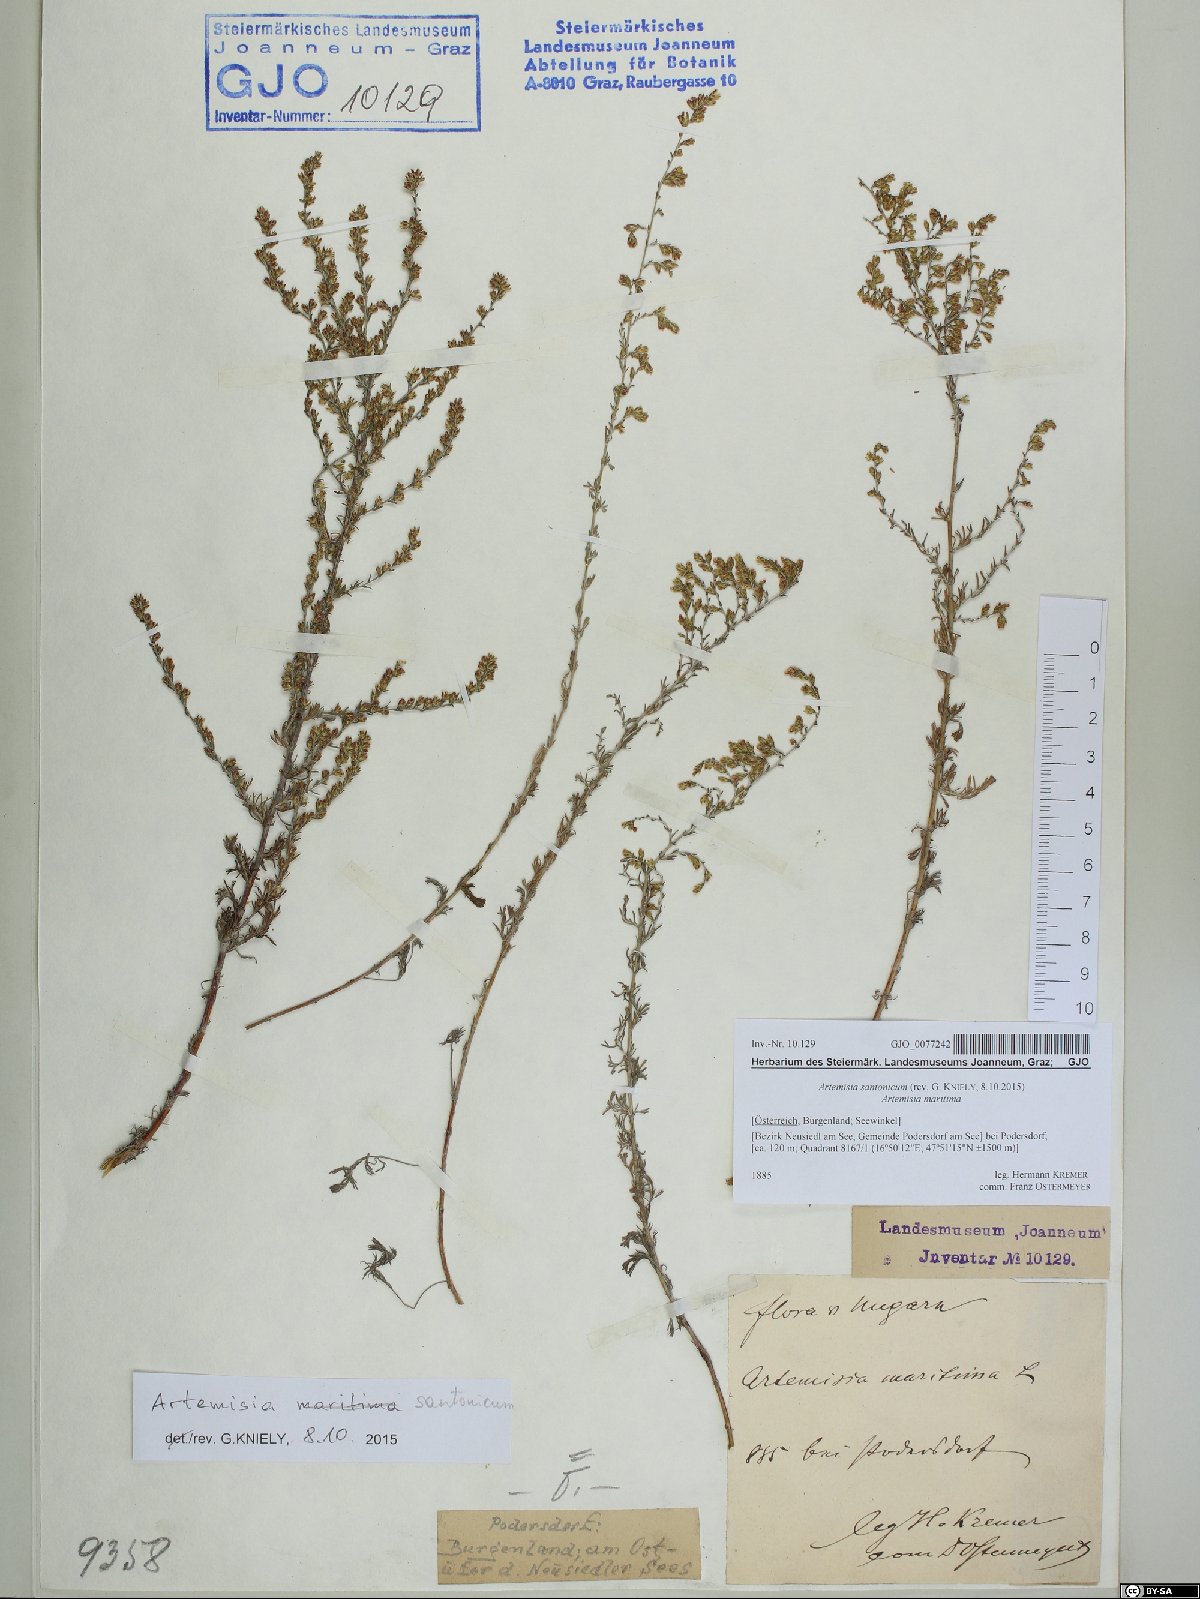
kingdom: Plantae
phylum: Tracheophyta
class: Magnoliopsida
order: Asterales
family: Asteraceae
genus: Artemisia
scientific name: Artemisia santonicum
